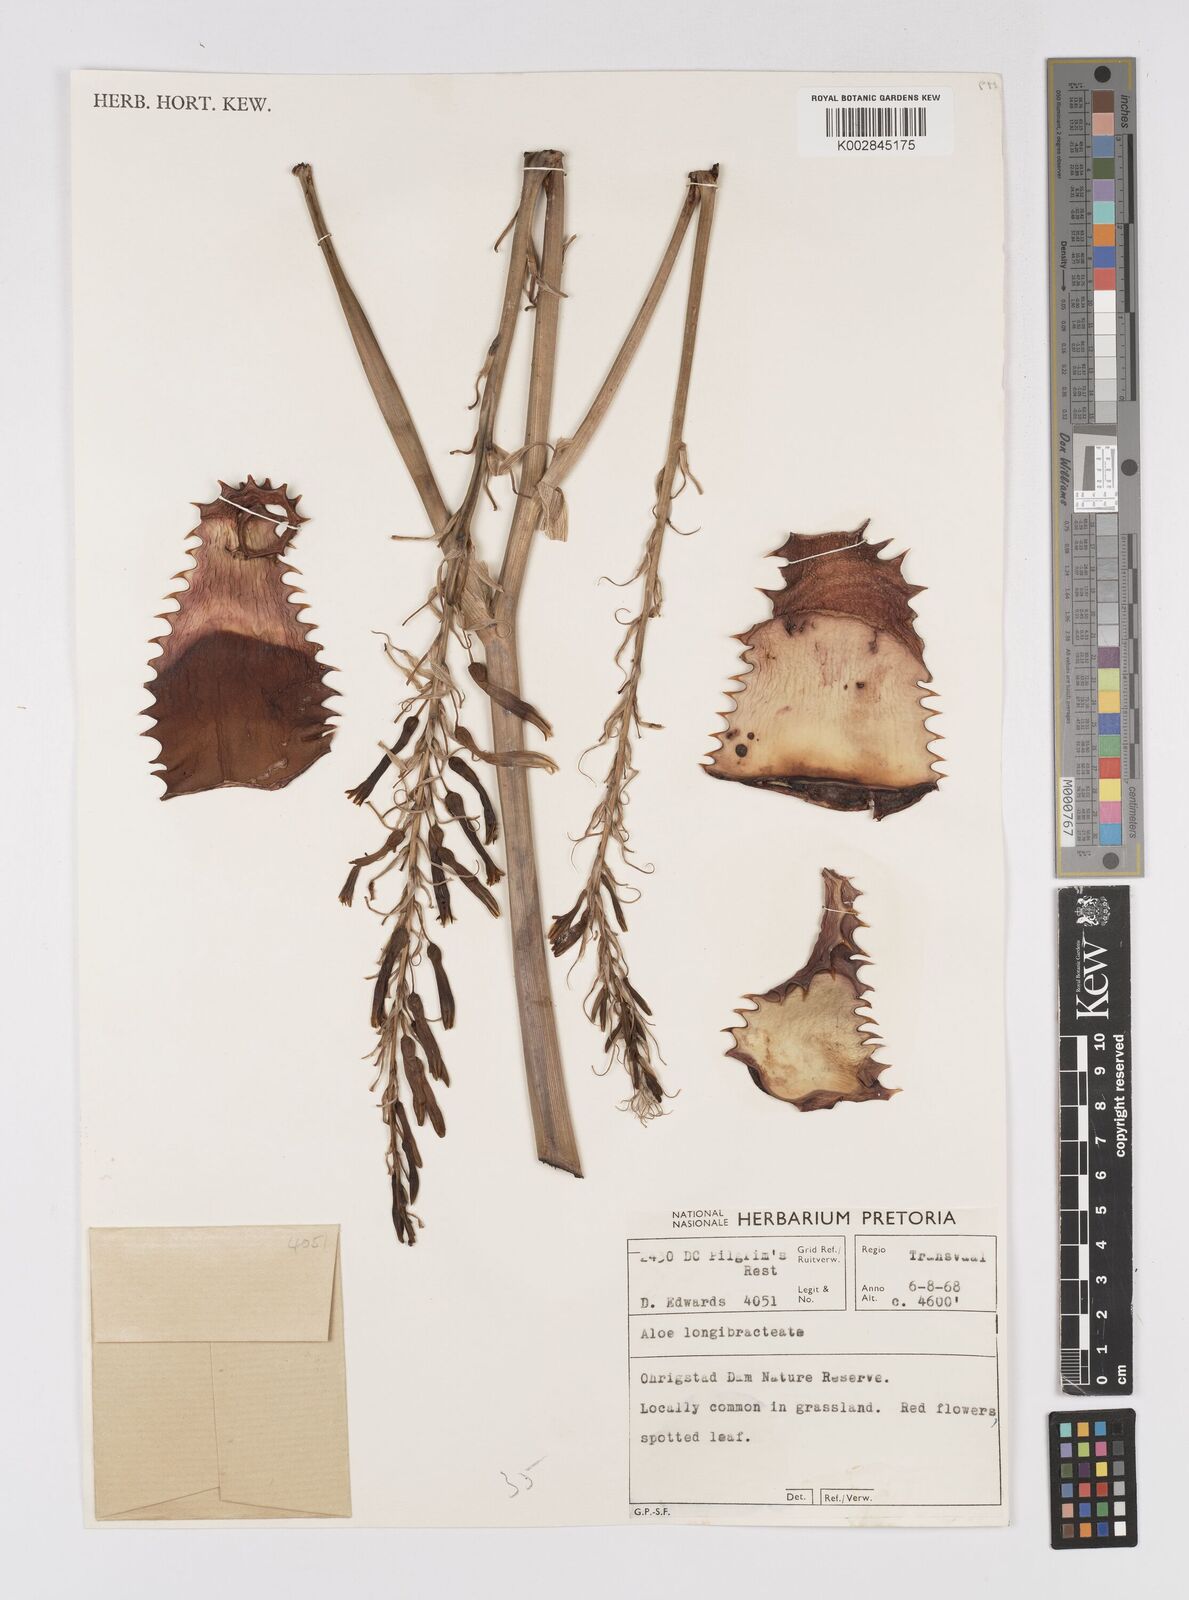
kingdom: Plantae
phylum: Tracheophyta
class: Liliopsida
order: Asparagales
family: Asphodelaceae
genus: Aloe
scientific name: Aloe longibracteata
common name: Limpopo spotted aloe
